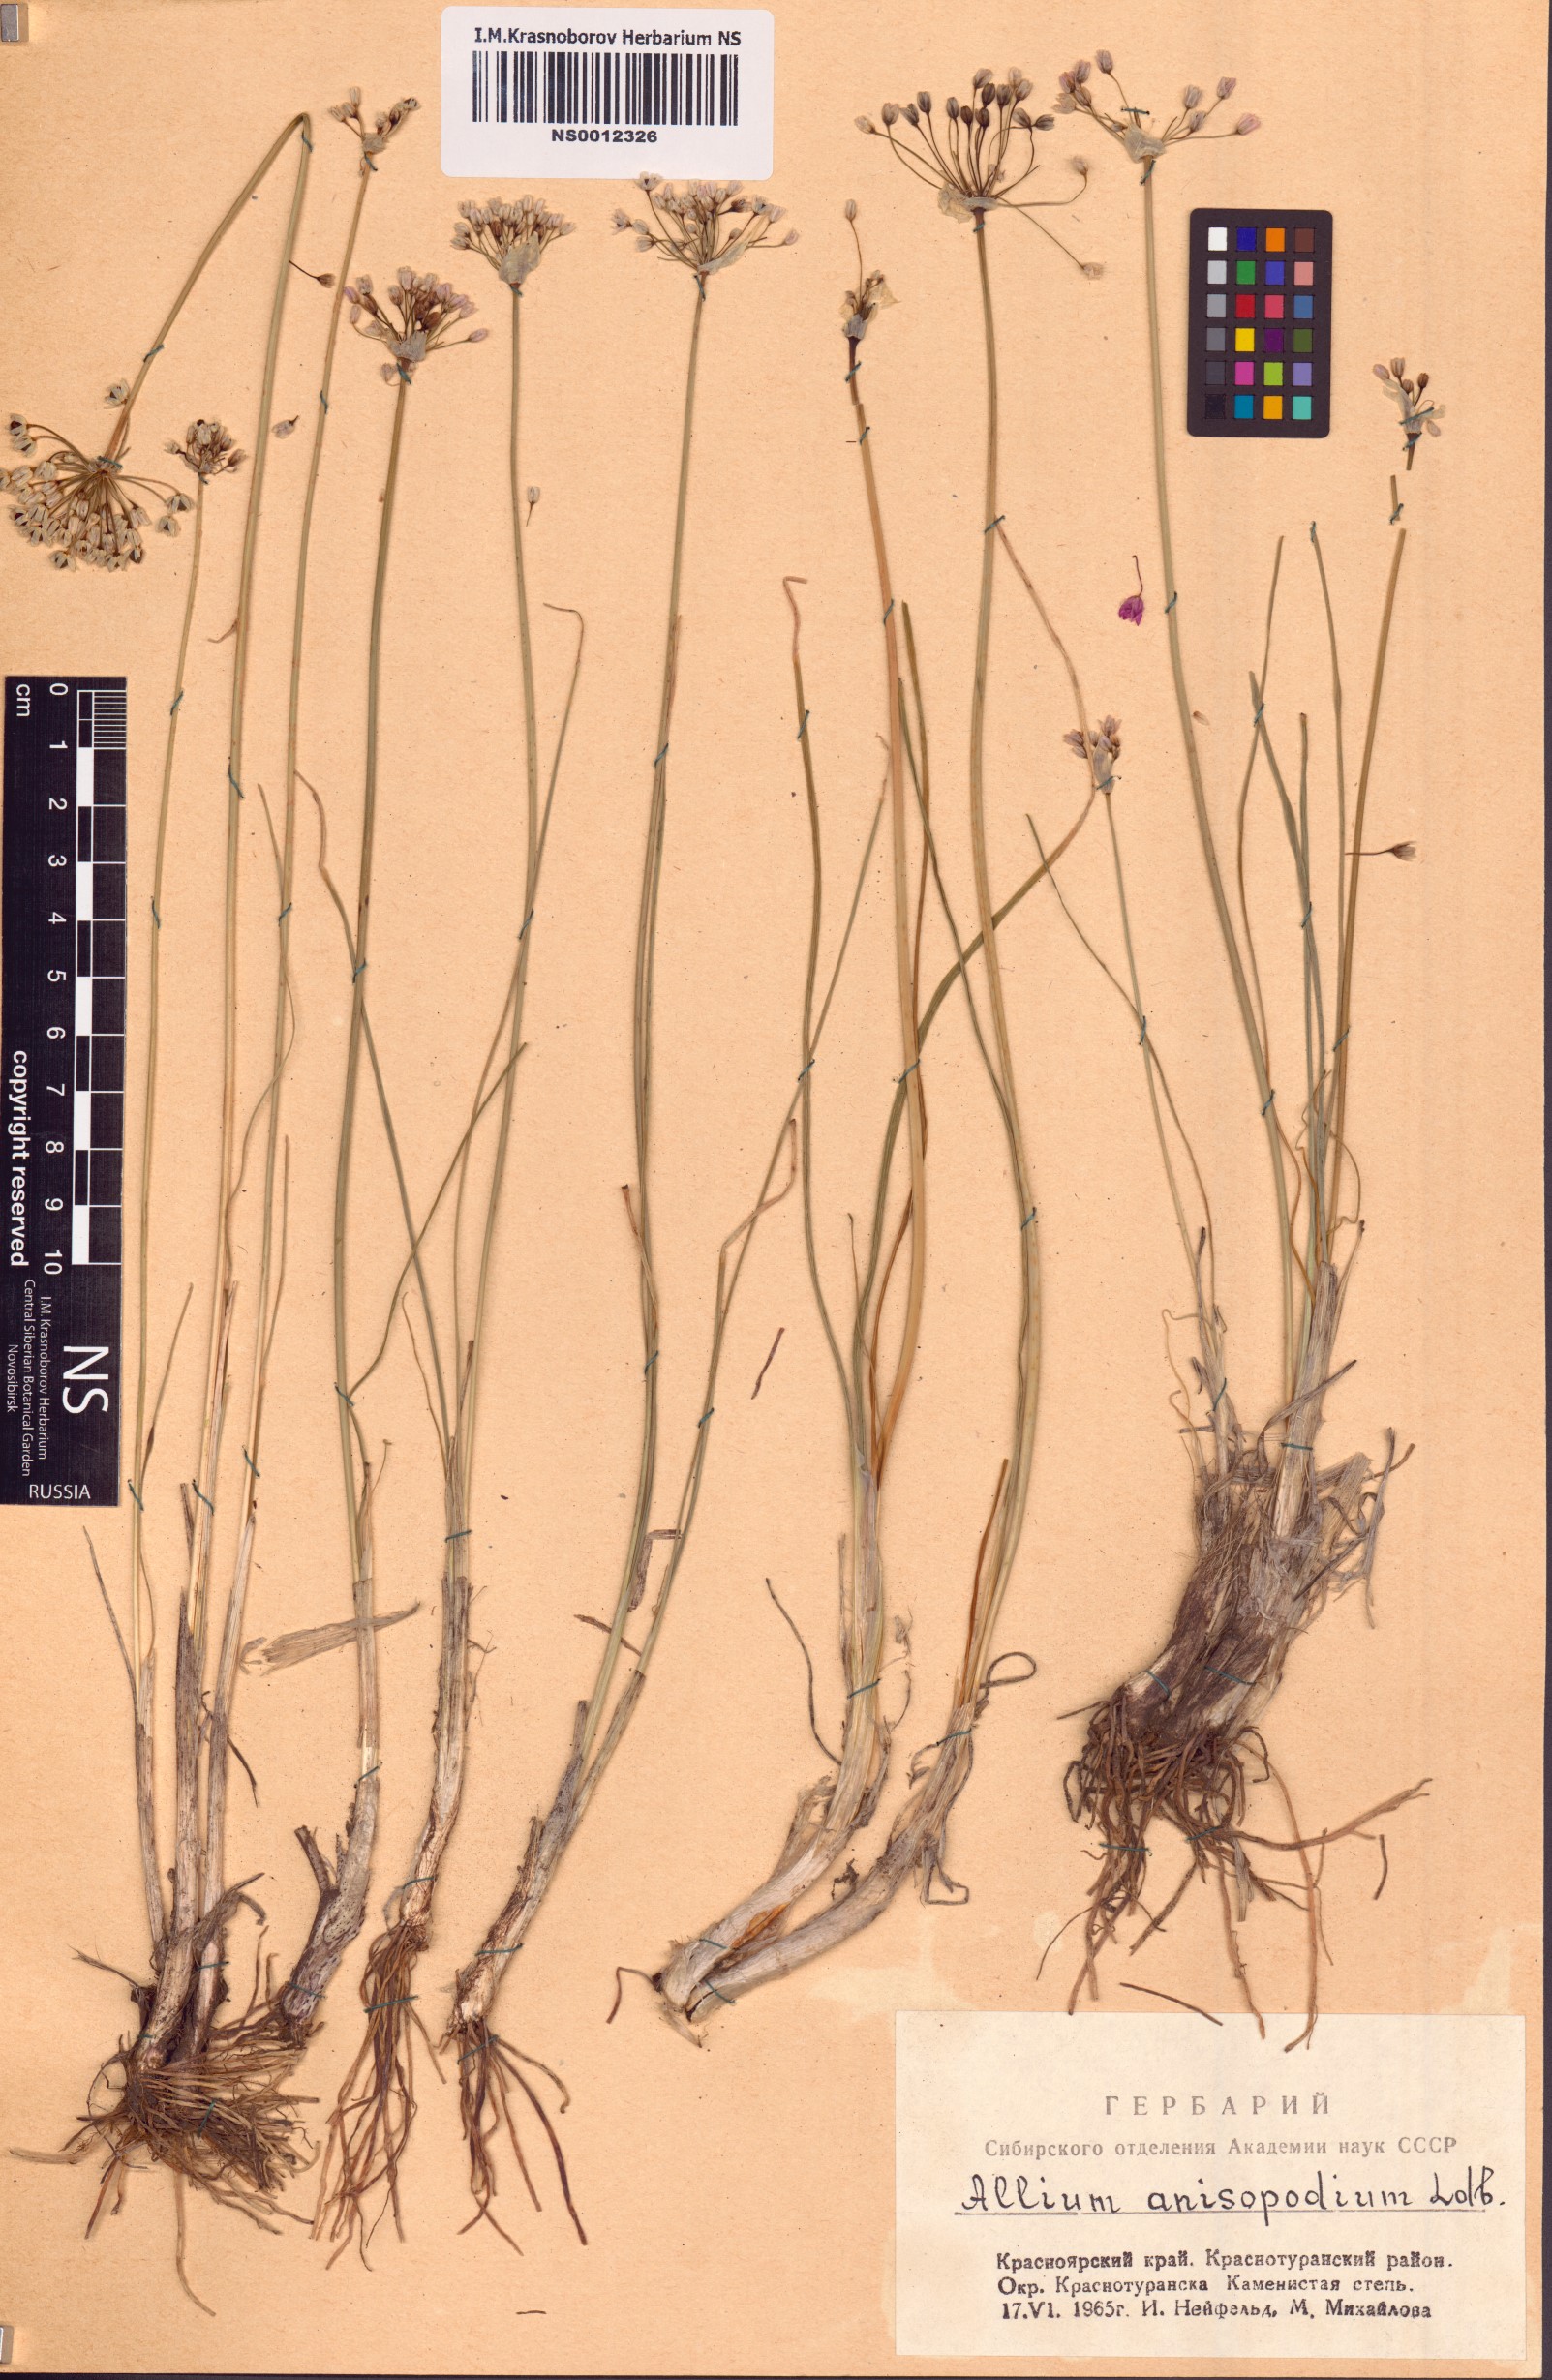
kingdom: Plantae
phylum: Tracheophyta
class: Liliopsida
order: Asparagales
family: Amaryllidaceae
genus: Allium
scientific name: Allium anisopodium
